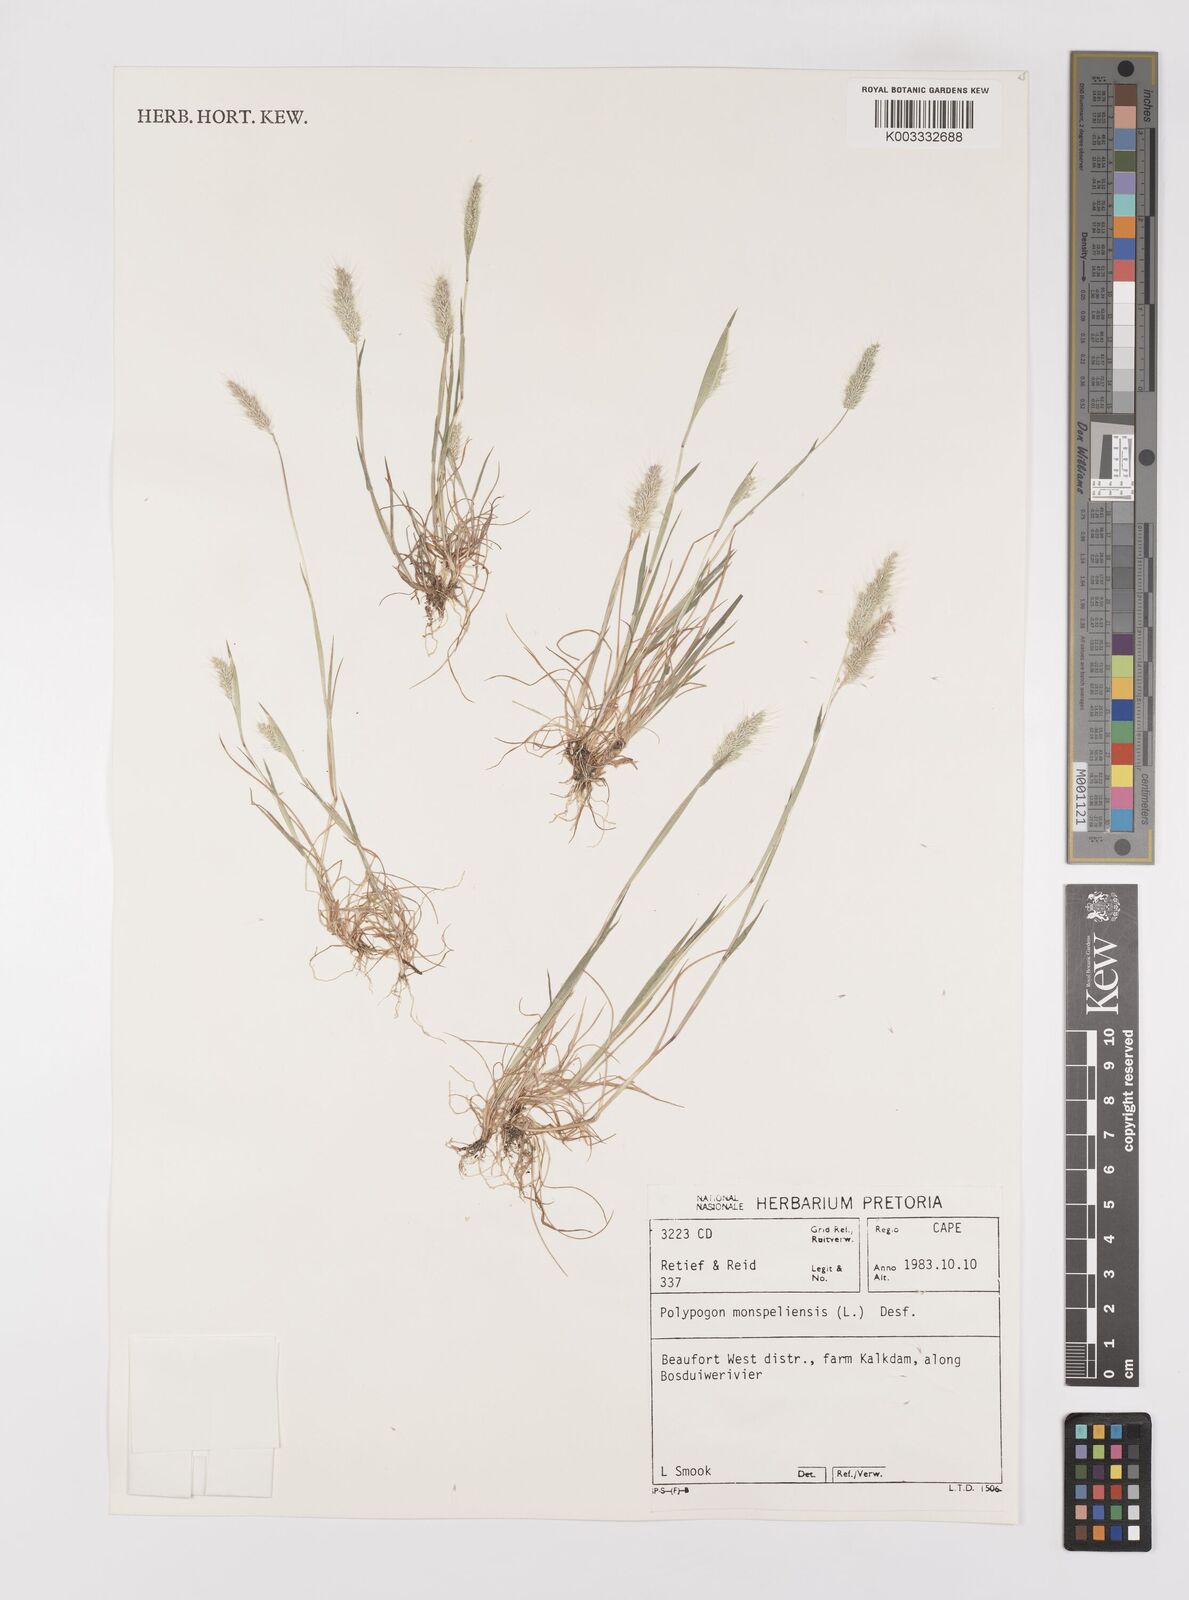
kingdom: Plantae
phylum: Tracheophyta
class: Liliopsida
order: Poales
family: Poaceae
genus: Polypogon
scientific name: Polypogon monspeliensis
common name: Annual rabbitsfoot grass
